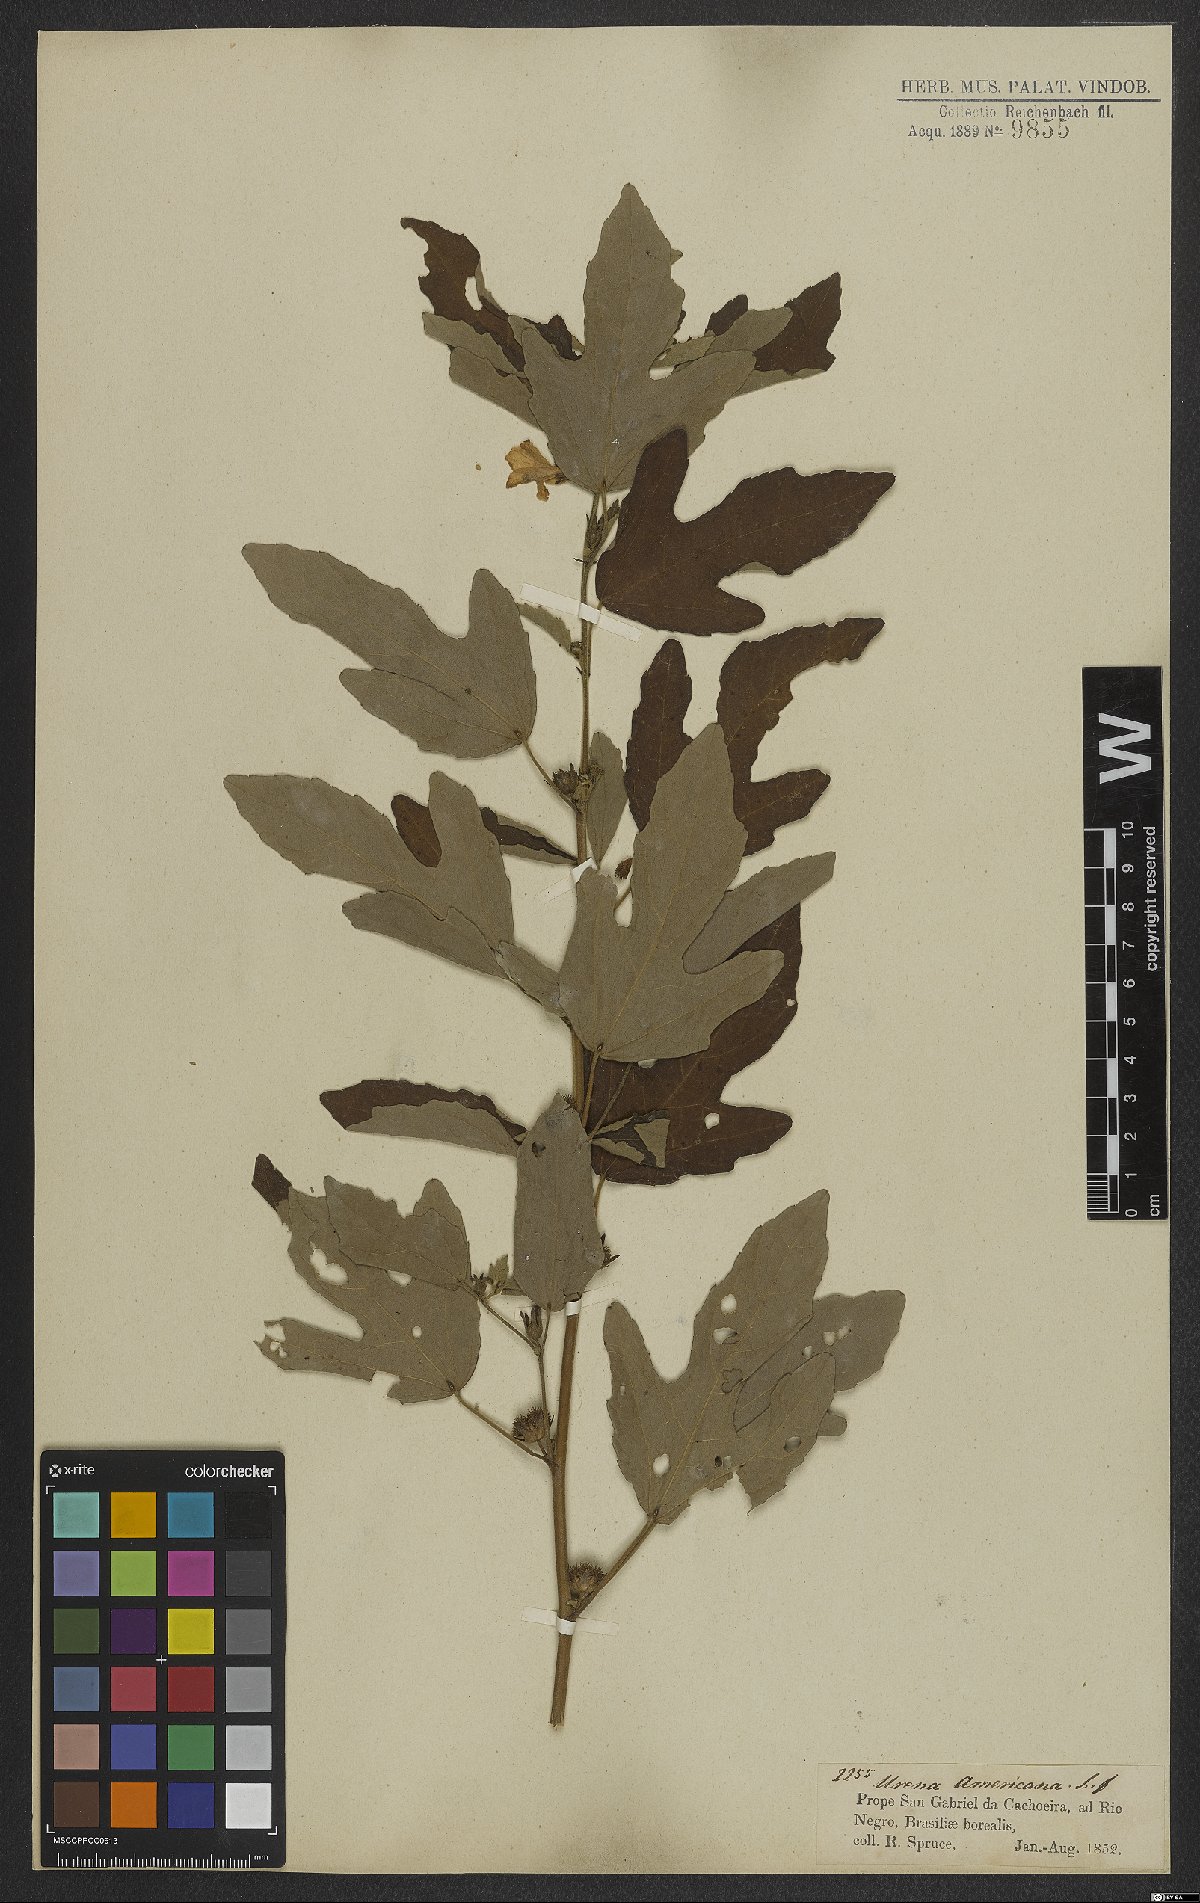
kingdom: Plantae
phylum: Tracheophyta
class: Magnoliopsida
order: Malvales
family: Malvaceae
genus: Urena
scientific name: Urena lobata
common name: Caesarweed
